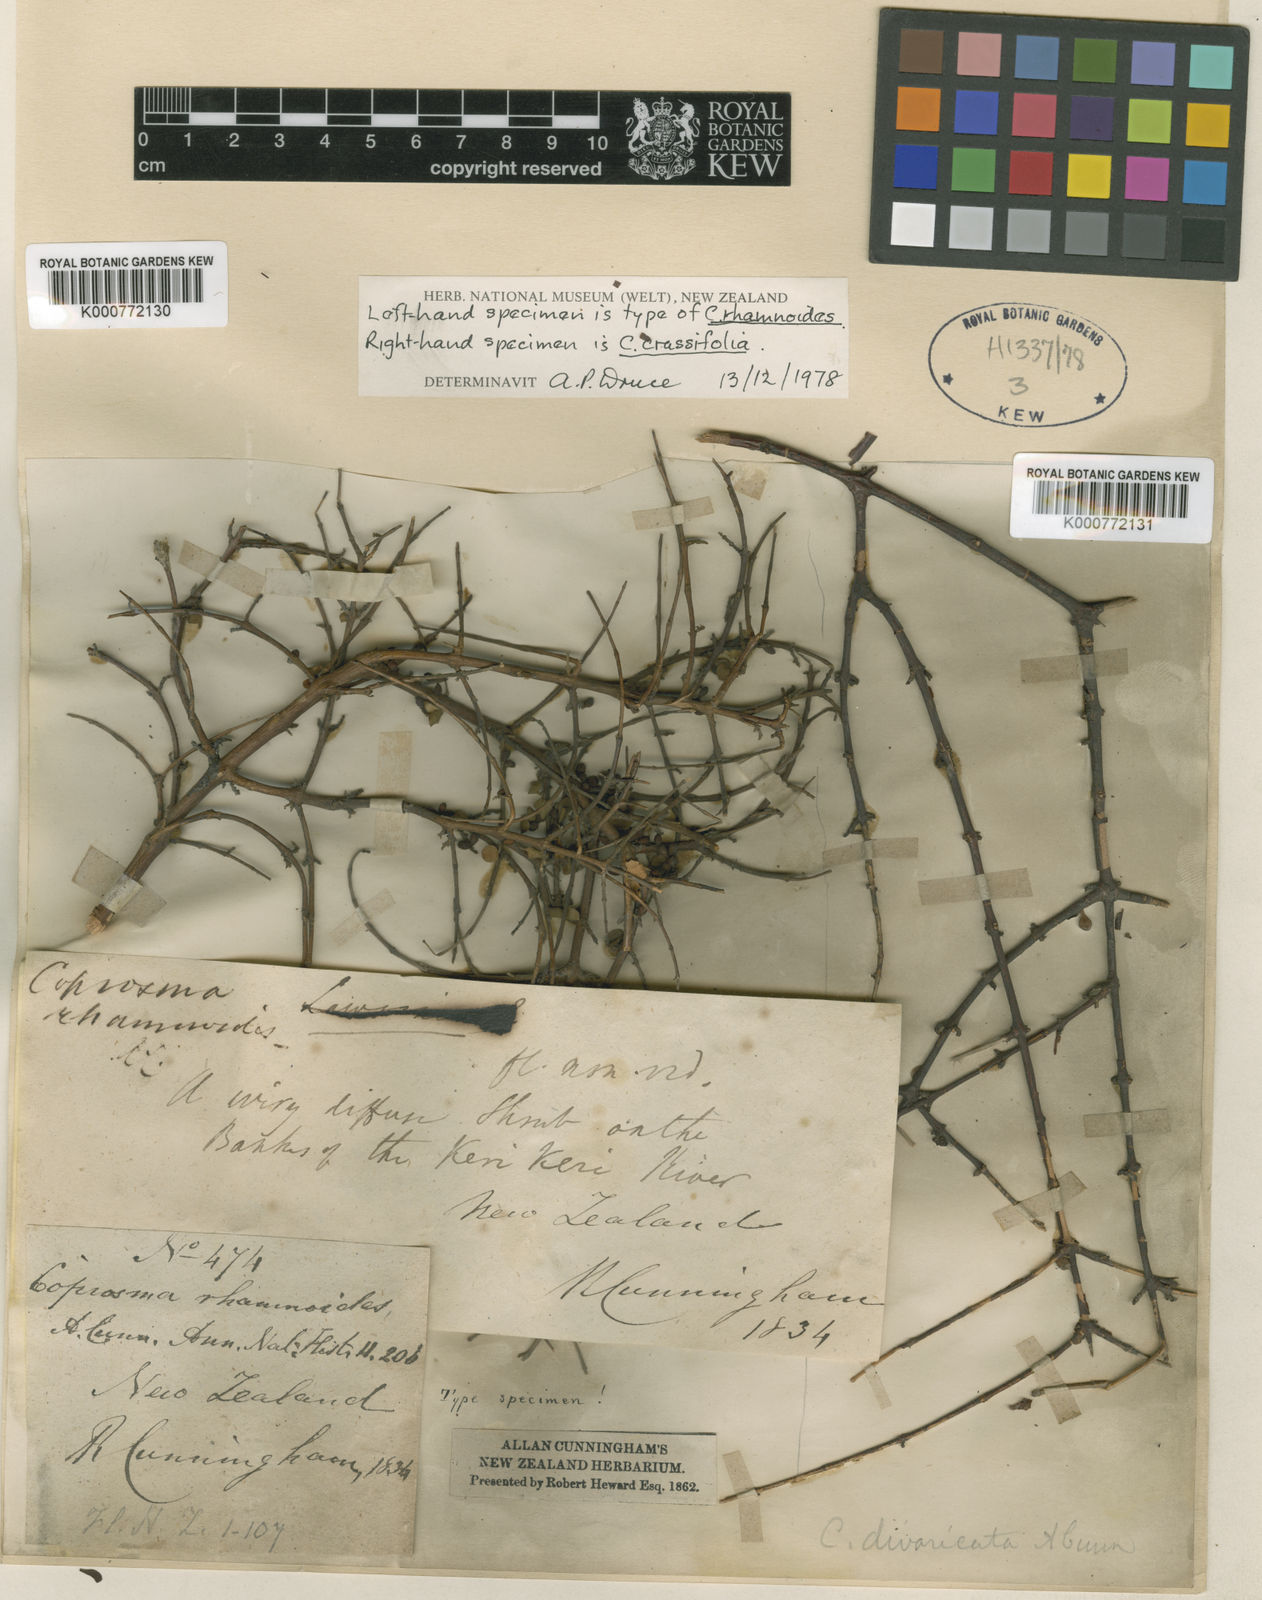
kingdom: Plantae
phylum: Tracheophyta
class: Magnoliopsida
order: Gentianales
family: Rubiaceae
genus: Coprosma
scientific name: Coprosma rhamnoides
